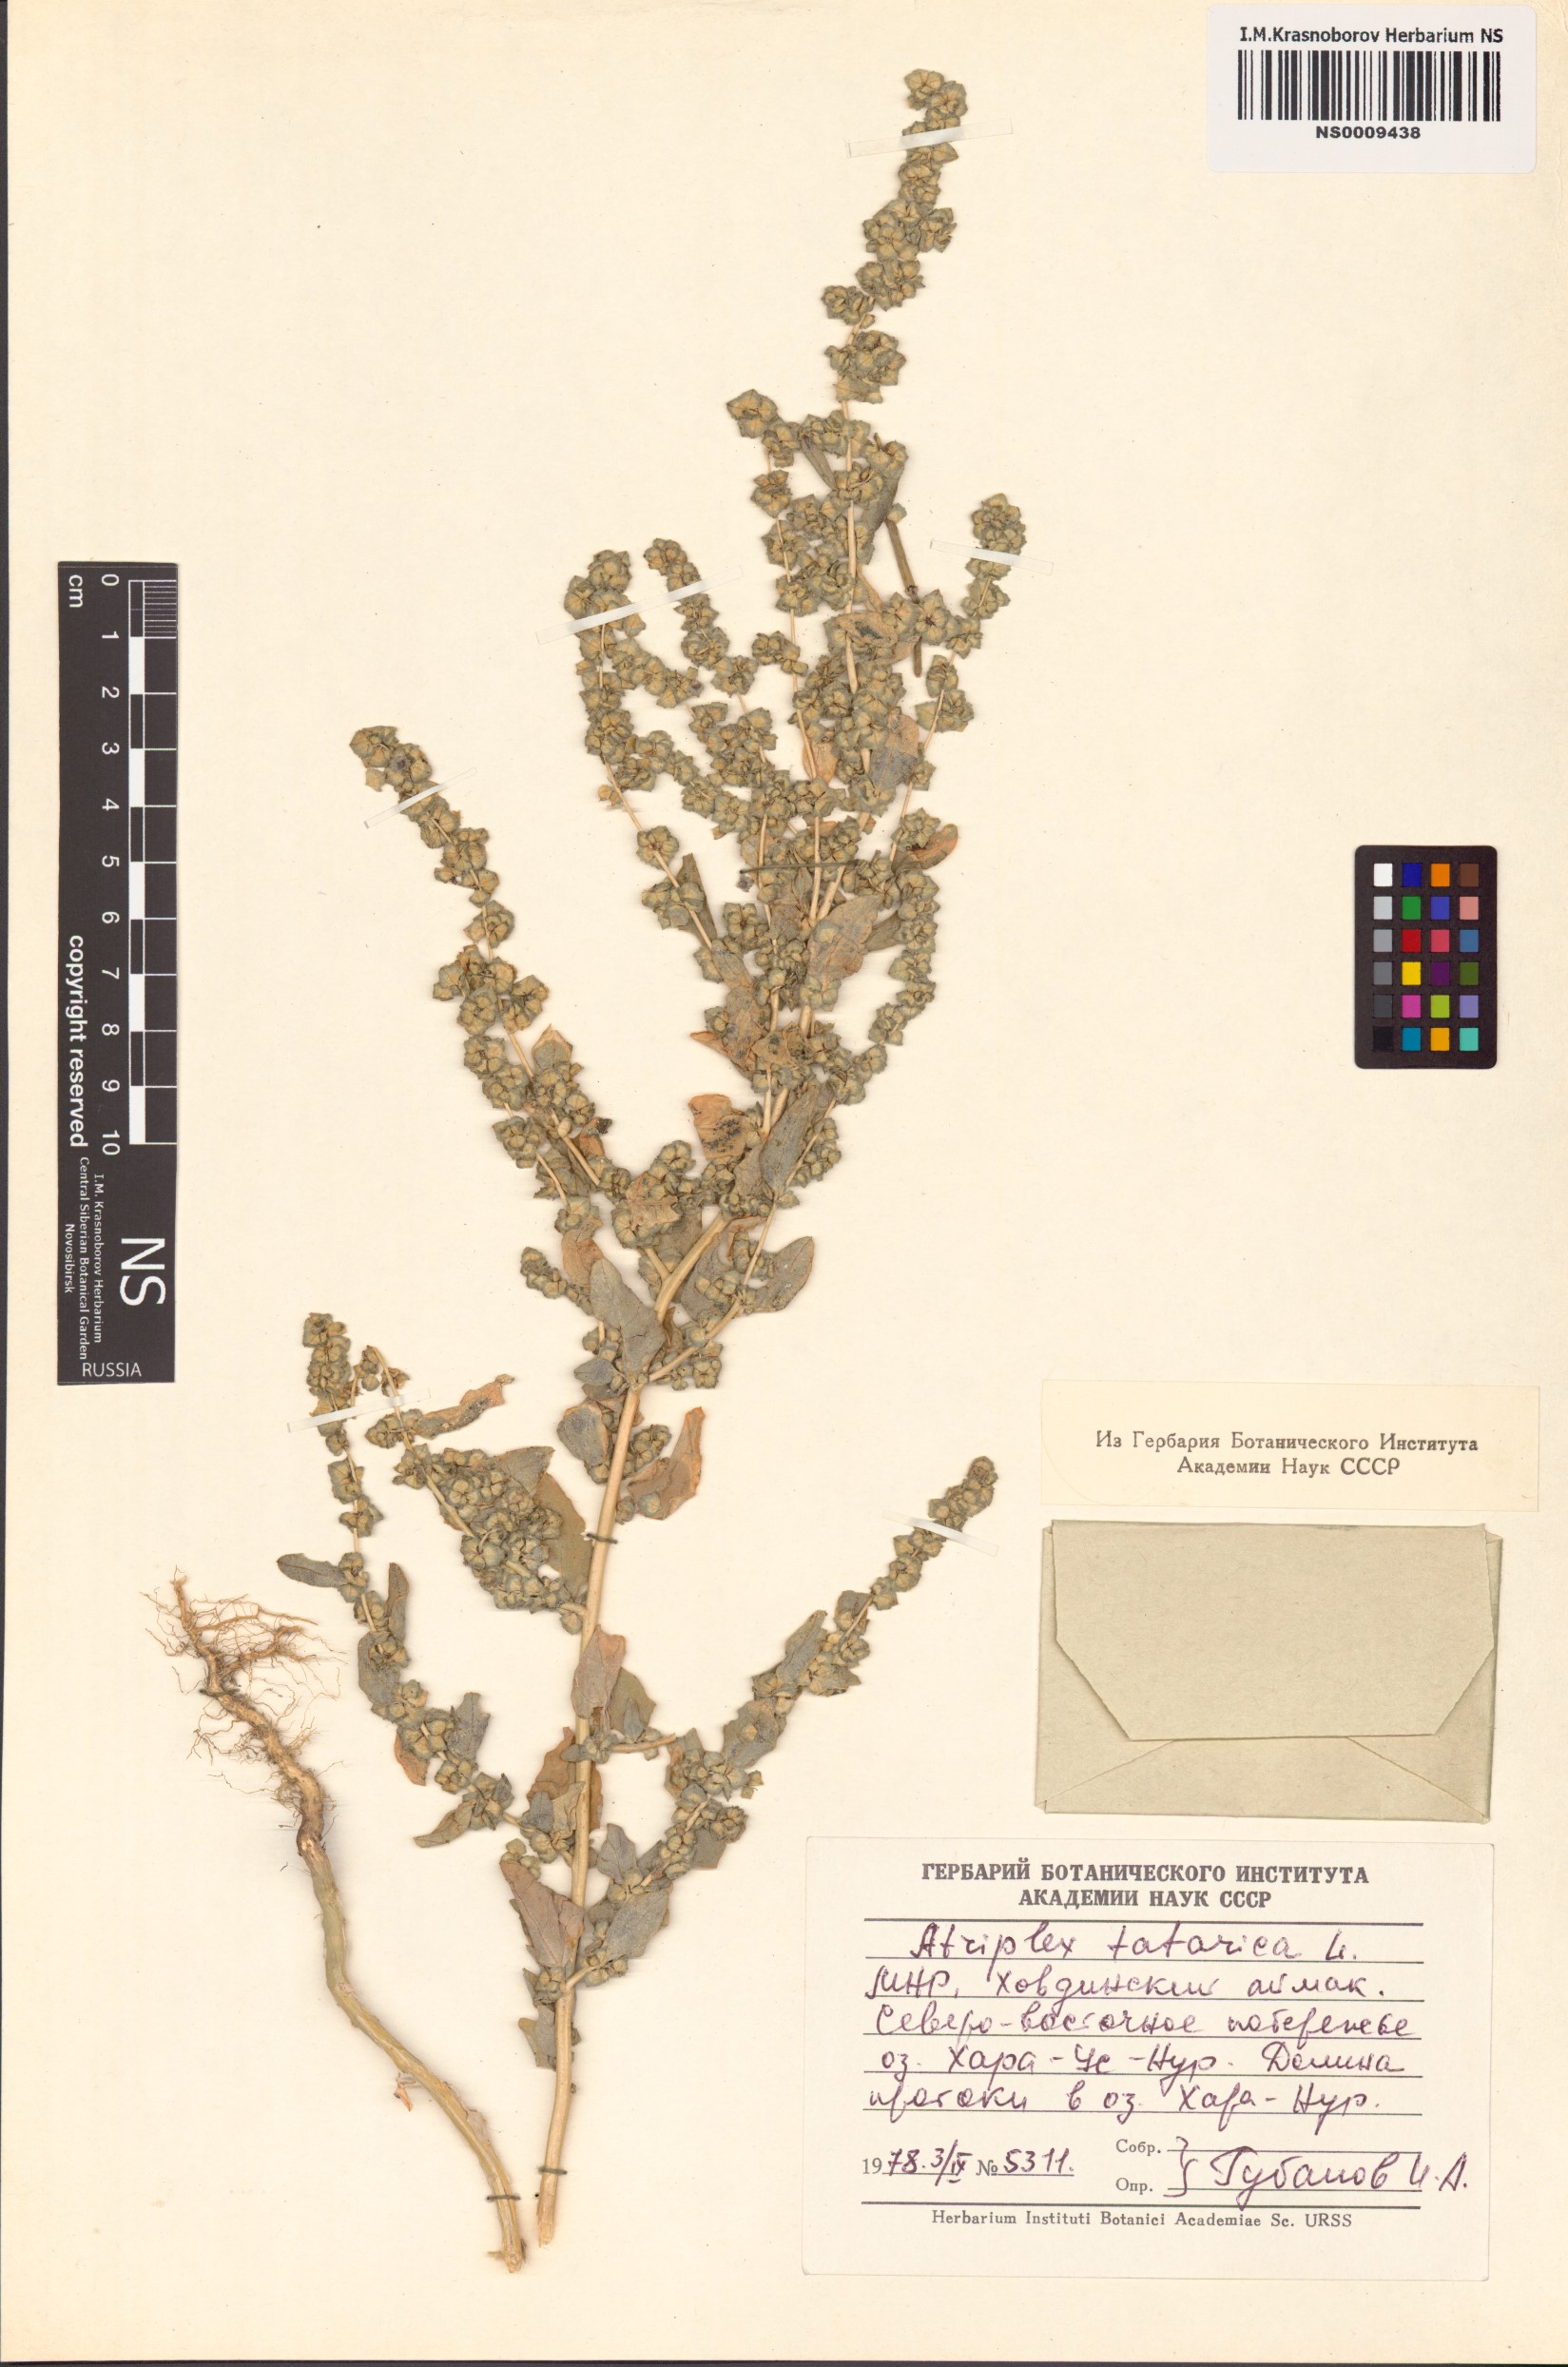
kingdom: Plantae
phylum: Tracheophyta
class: Magnoliopsida
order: Caryophyllales
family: Amaranthaceae
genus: Atriplex
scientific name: Atriplex tatarica
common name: Tatarian orache
